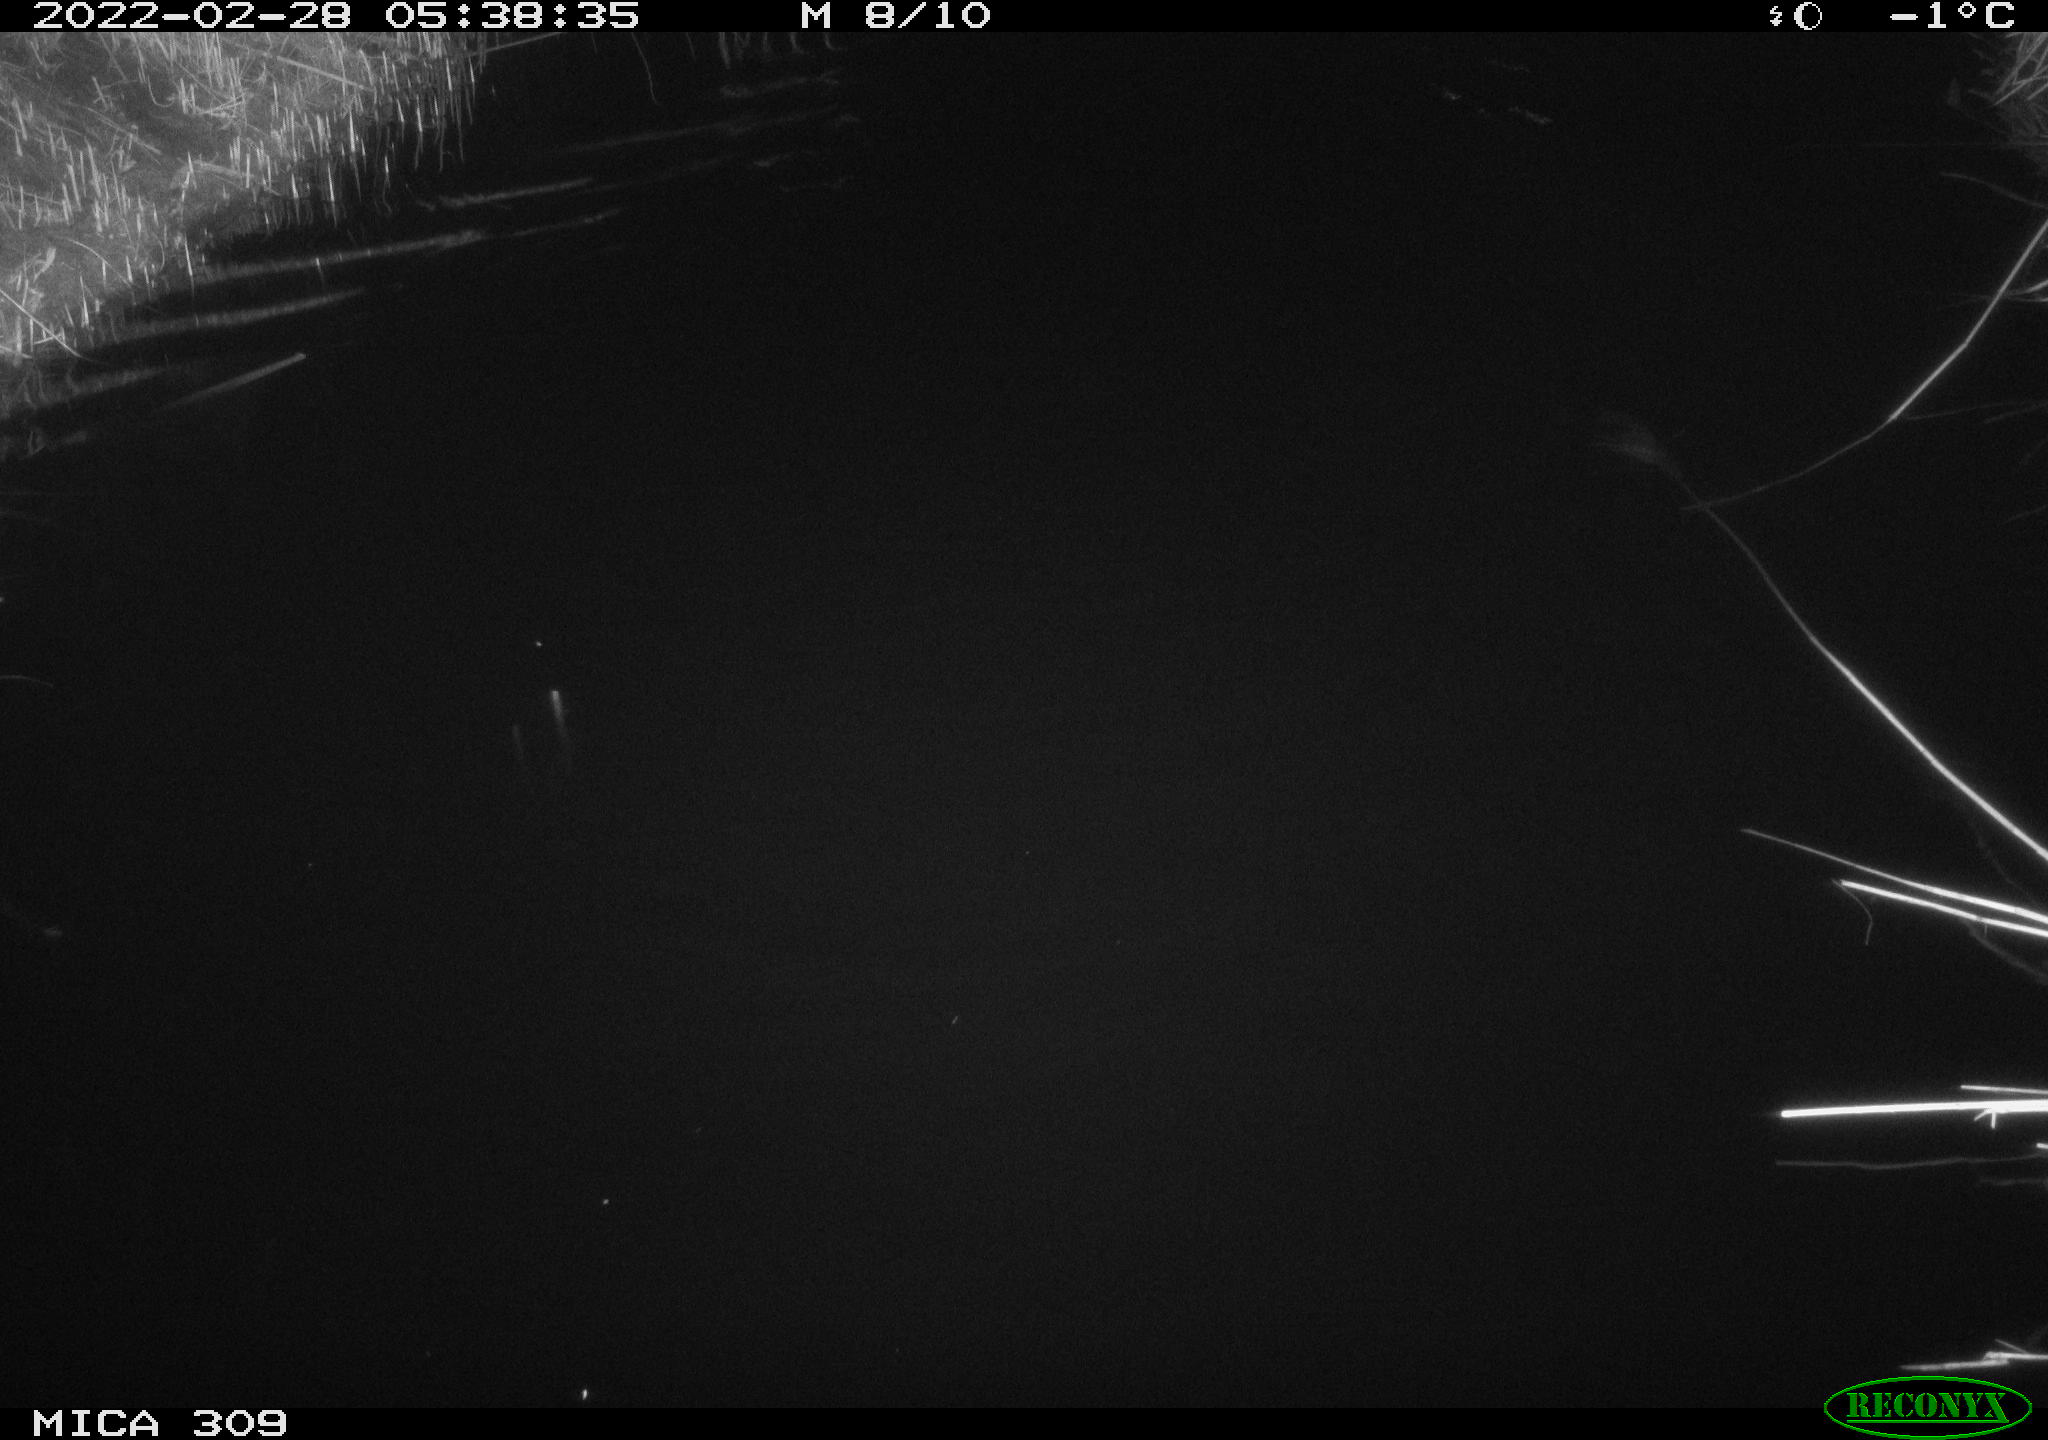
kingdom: Animalia
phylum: Chordata
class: Mammalia
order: Rodentia
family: Cricetidae
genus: Ondatra
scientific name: Ondatra zibethicus
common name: Muskrat
